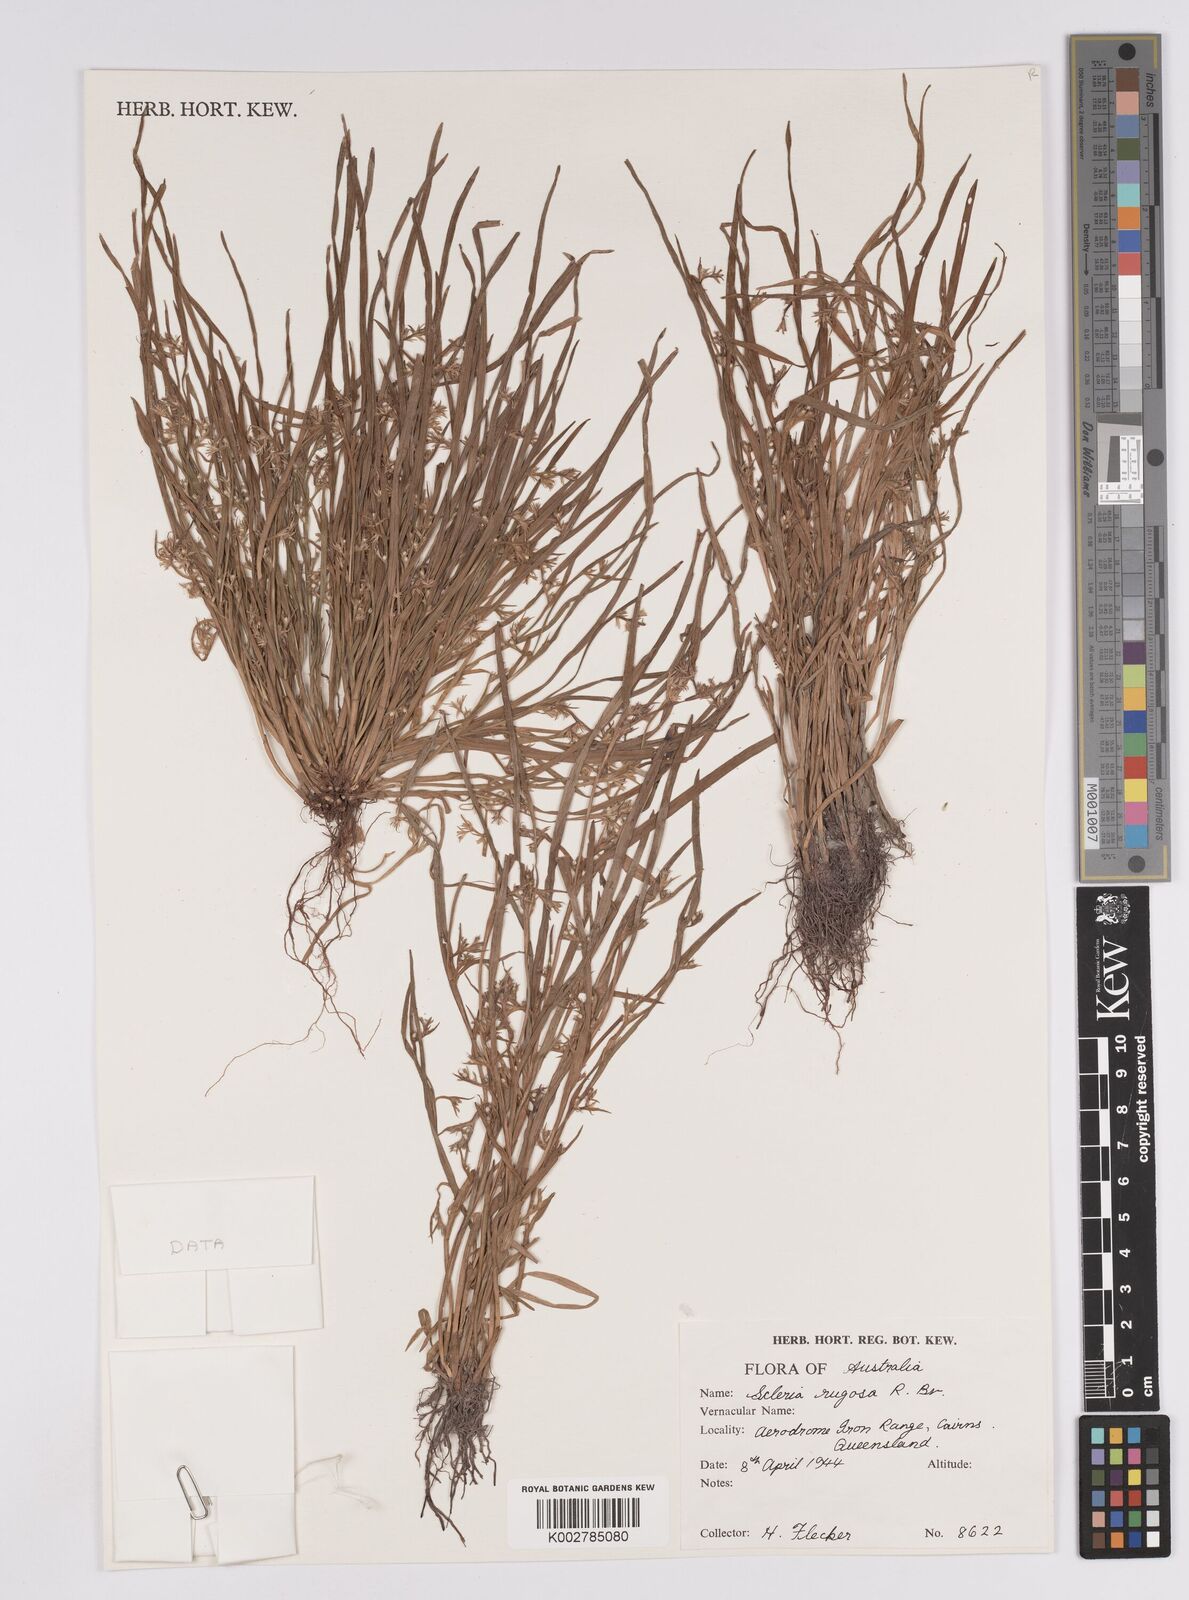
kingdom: Plantae
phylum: Tracheophyta
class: Liliopsida
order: Poales
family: Cyperaceae
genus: Scleria
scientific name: Scleria rugosa
